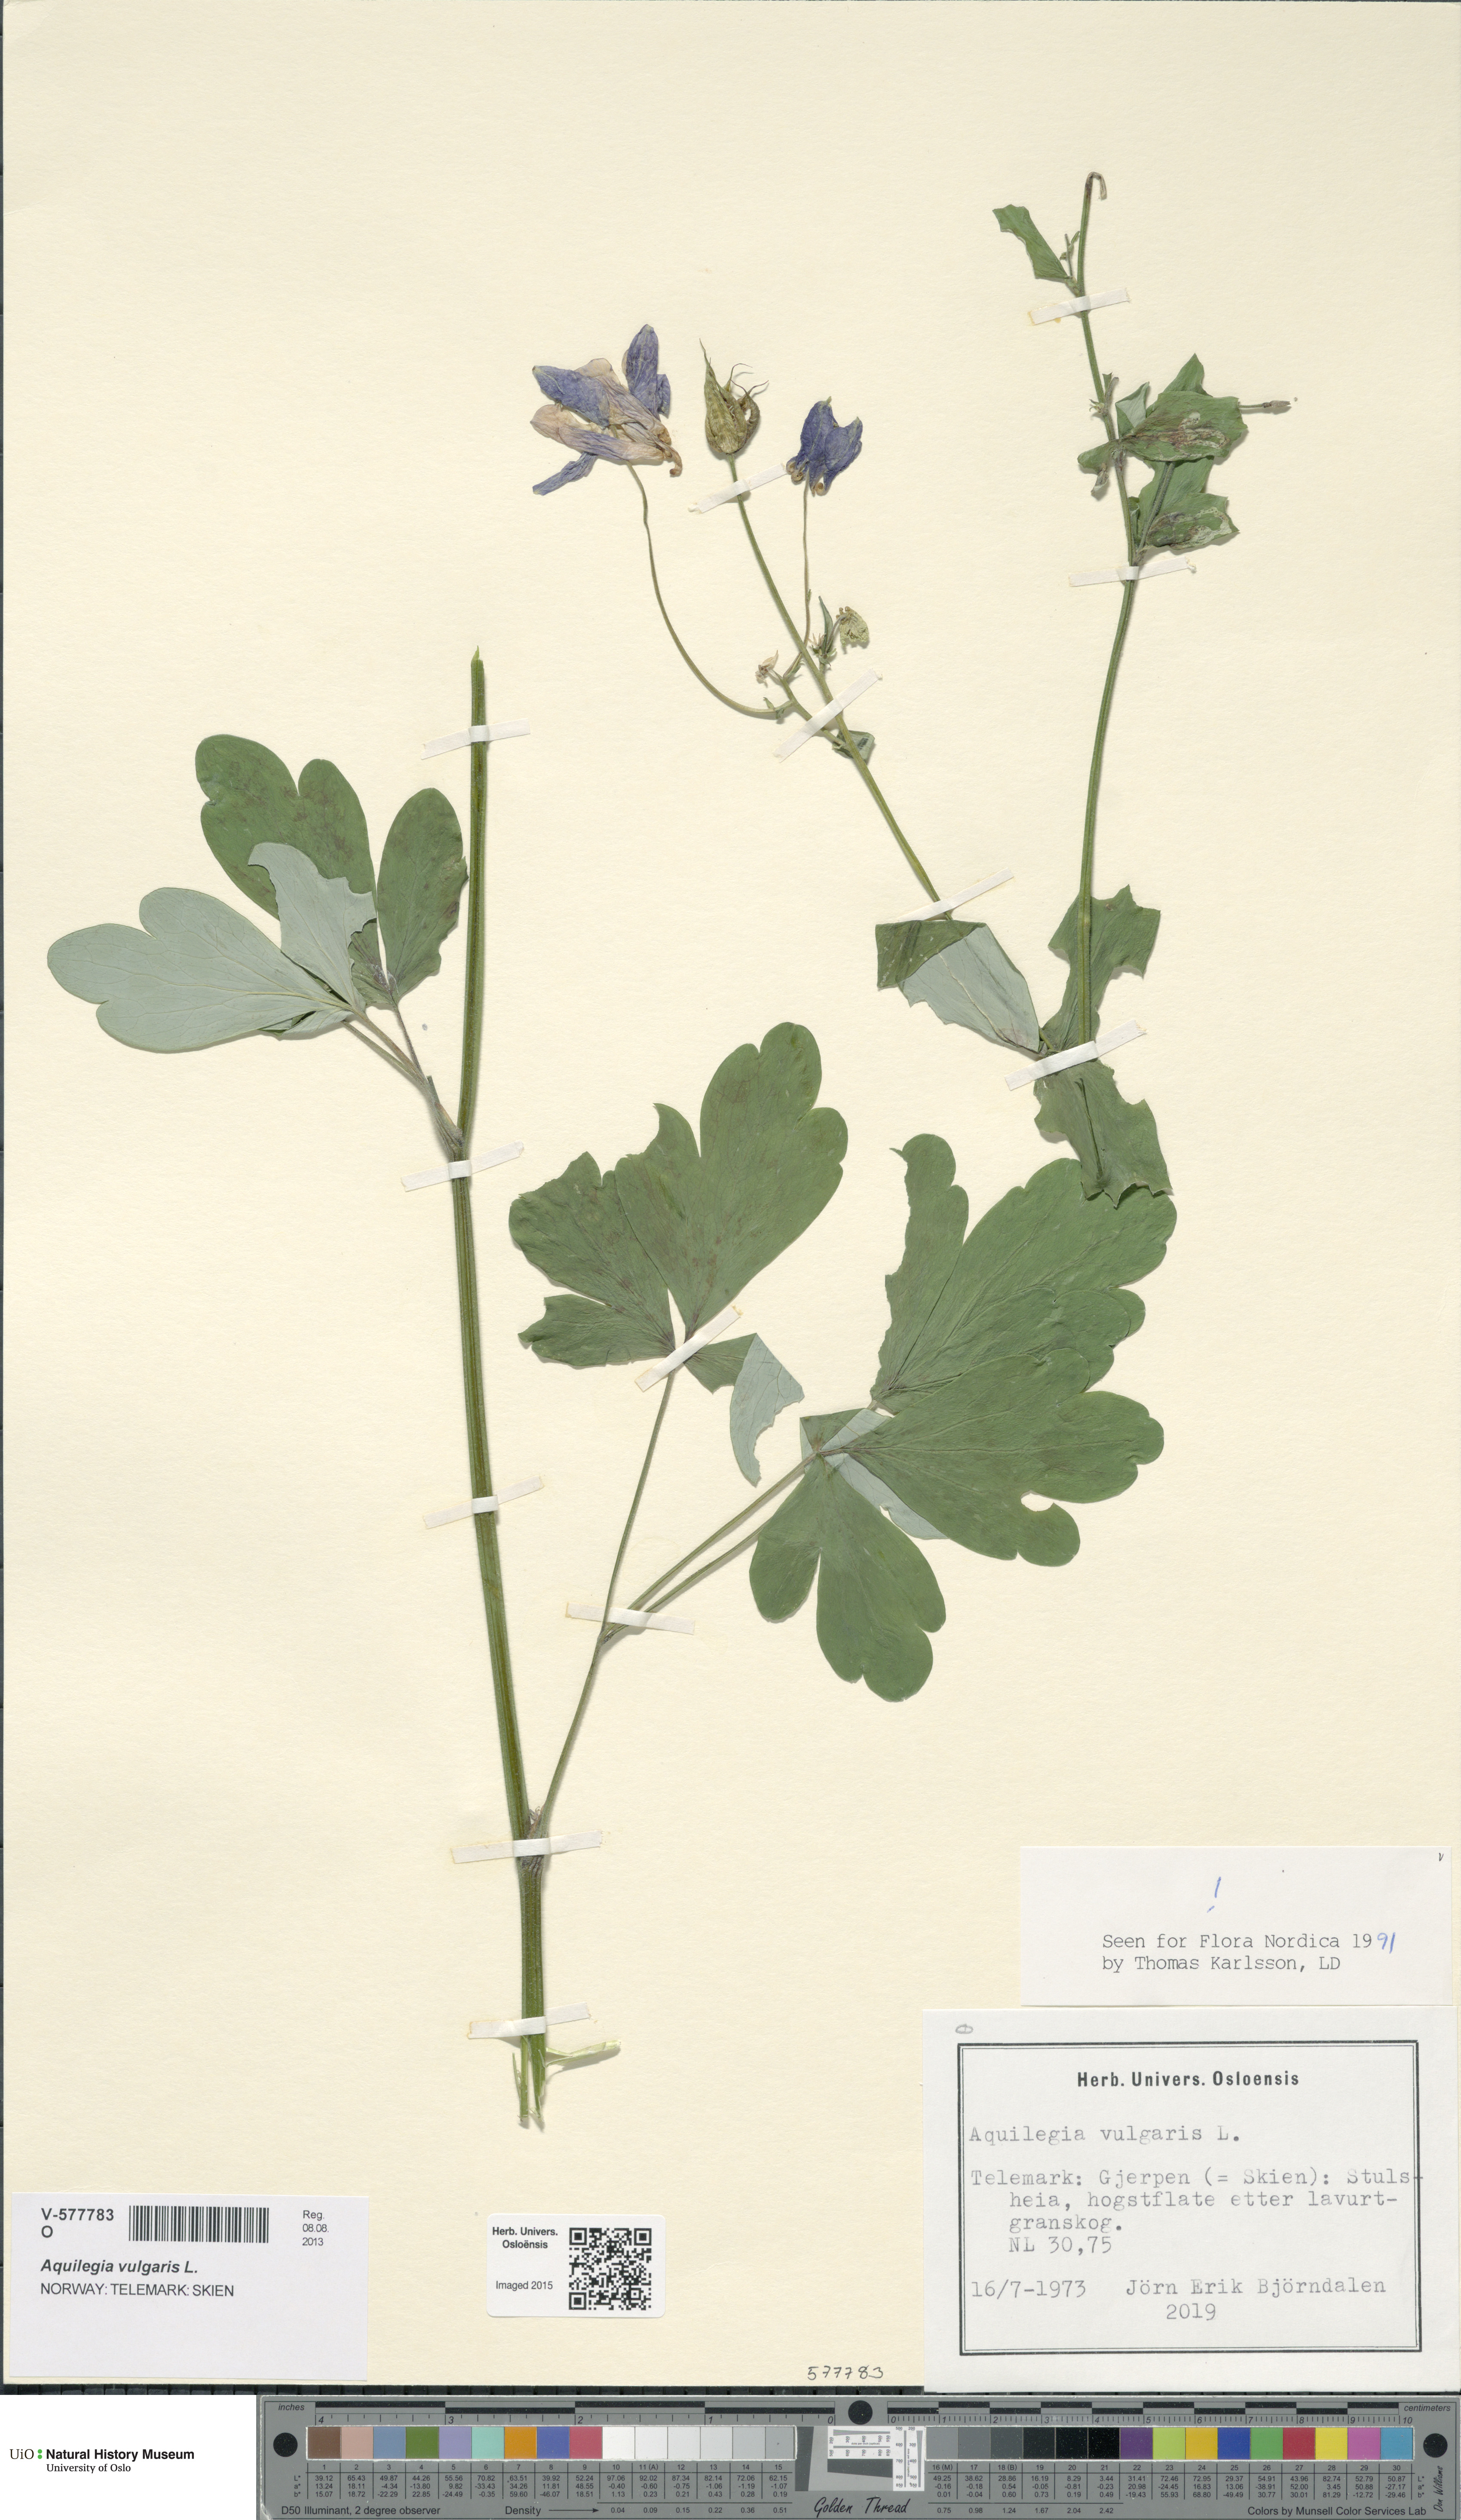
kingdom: Plantae
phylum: Tracheophyta
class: Magnoliopsida
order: Ranunculales
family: Ranunculaceae
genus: Aquilegia
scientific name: Aquilegia vulgaris
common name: Columbine
